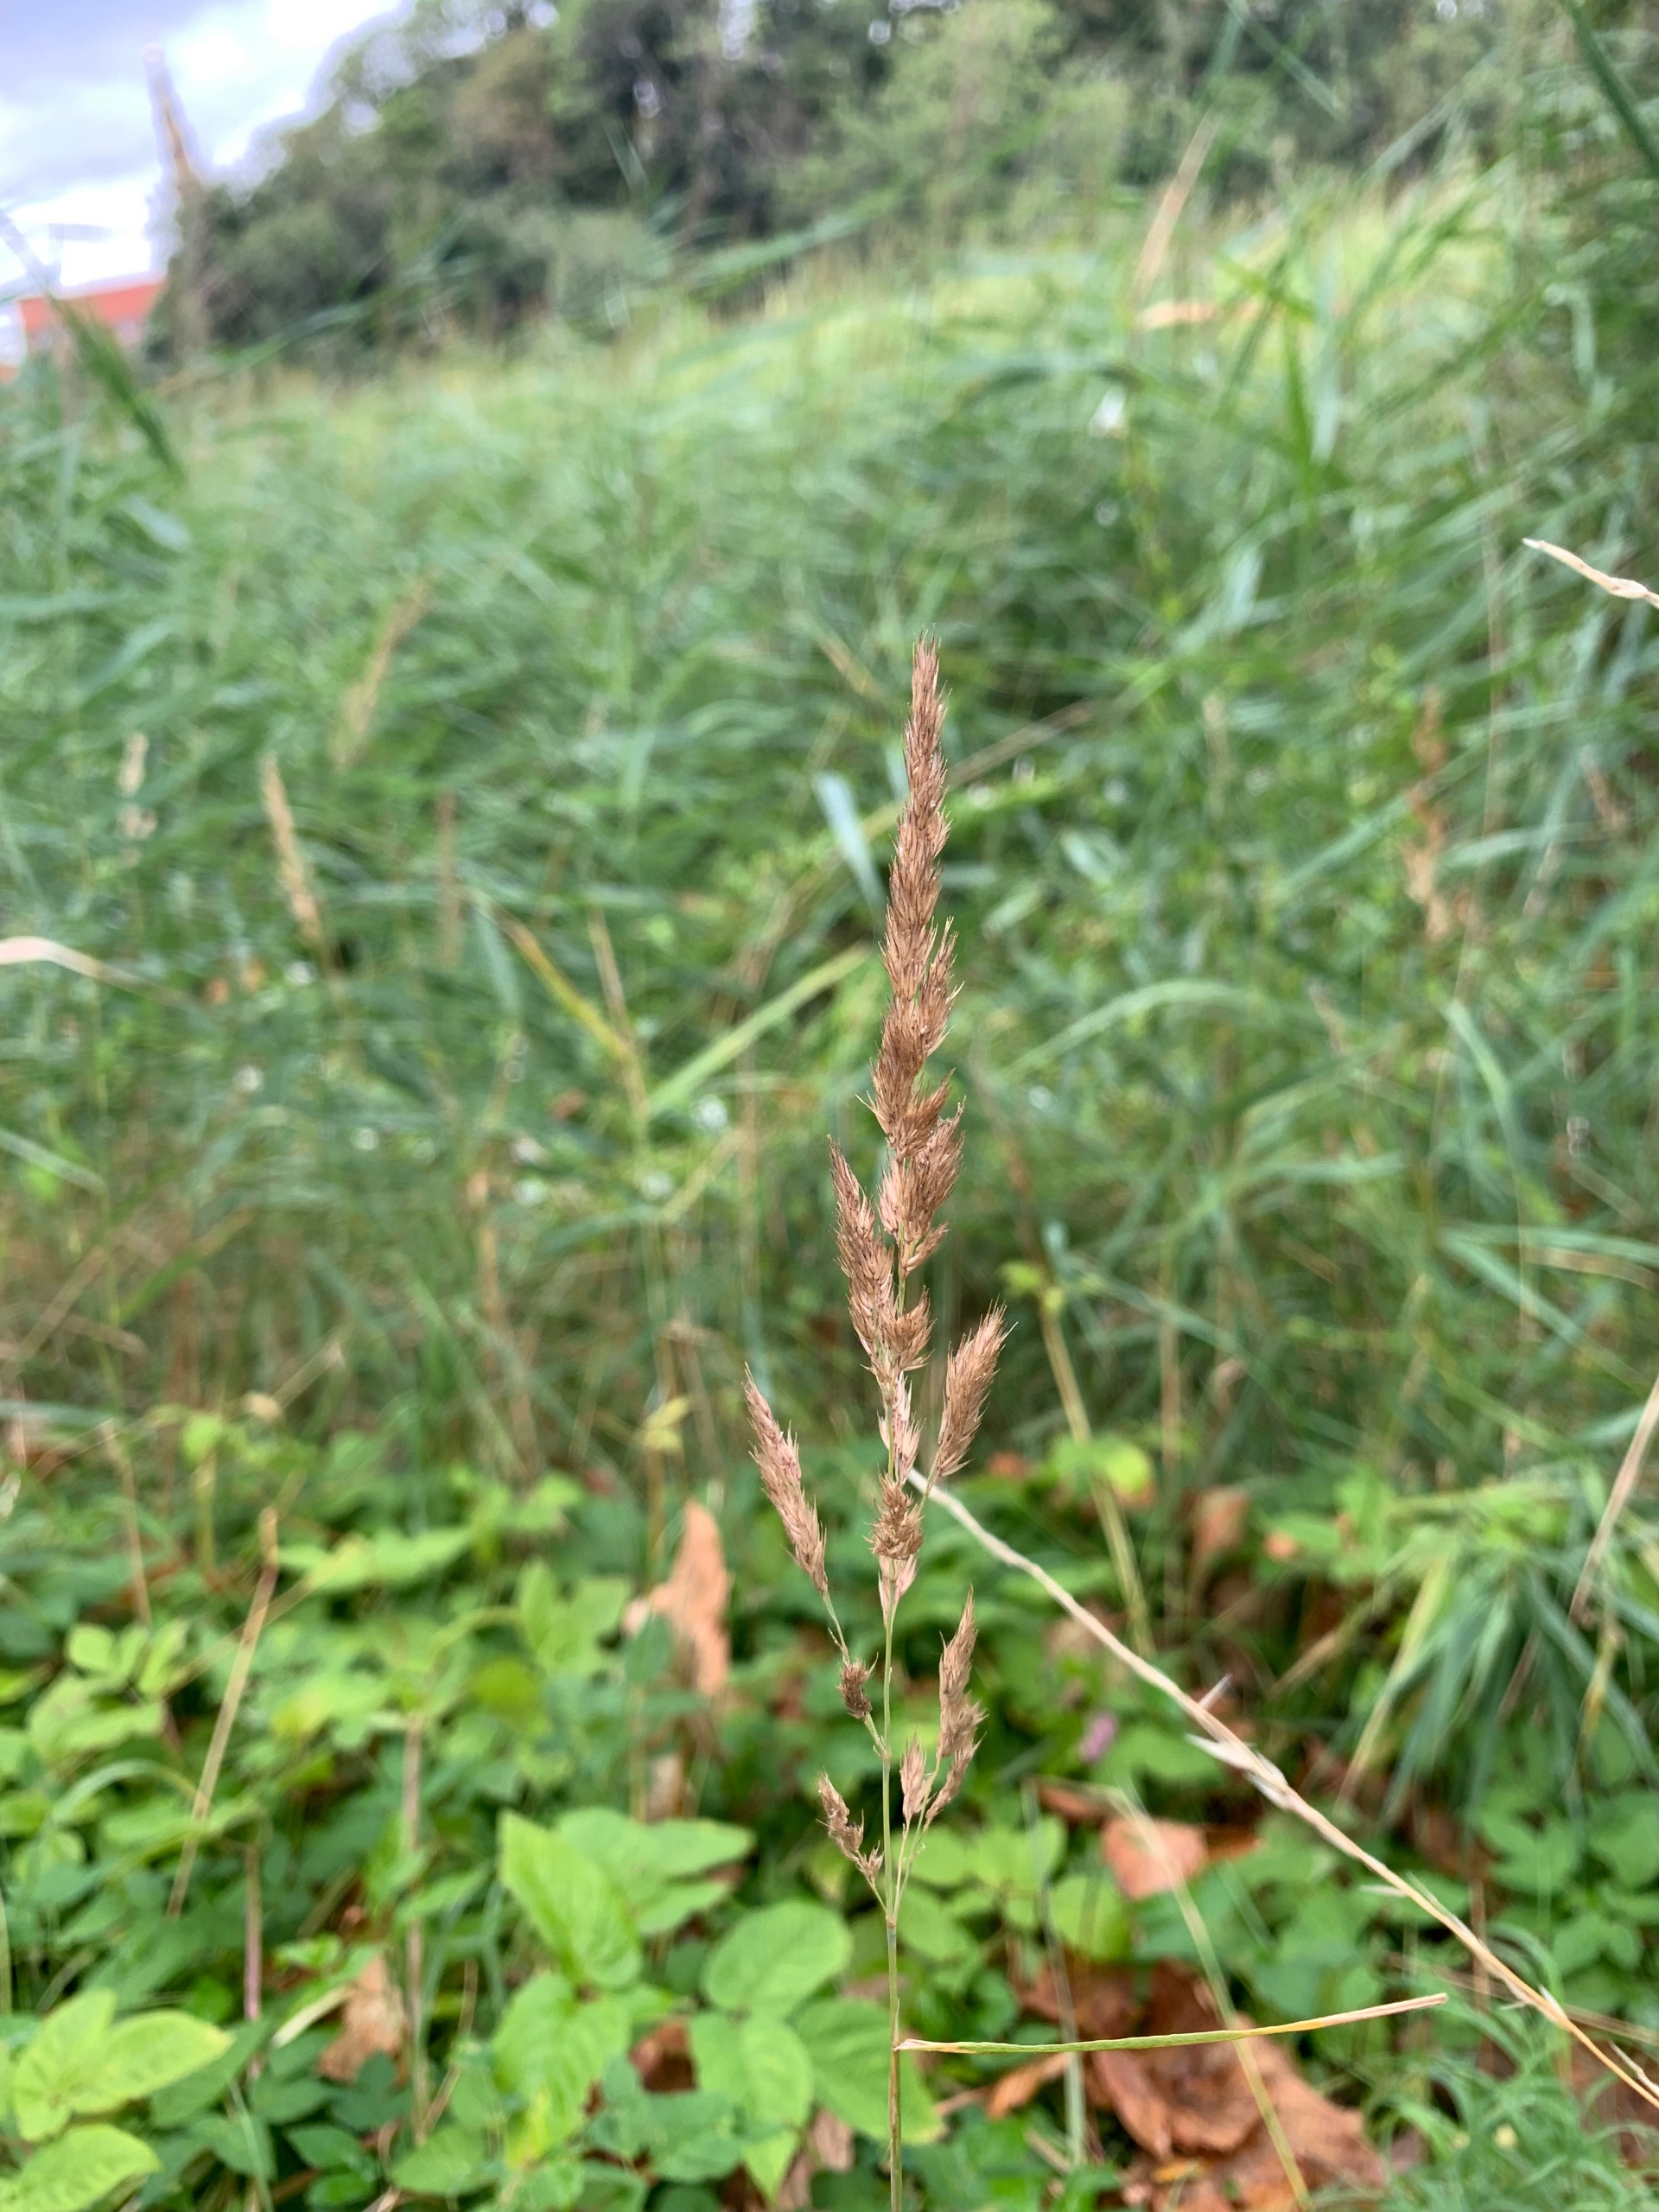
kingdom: Plantae
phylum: Tracheophyta
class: Liliopsida
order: Poales
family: Poaceae
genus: Phalaris
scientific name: Phalaris arundinacea
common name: Rørgræs
